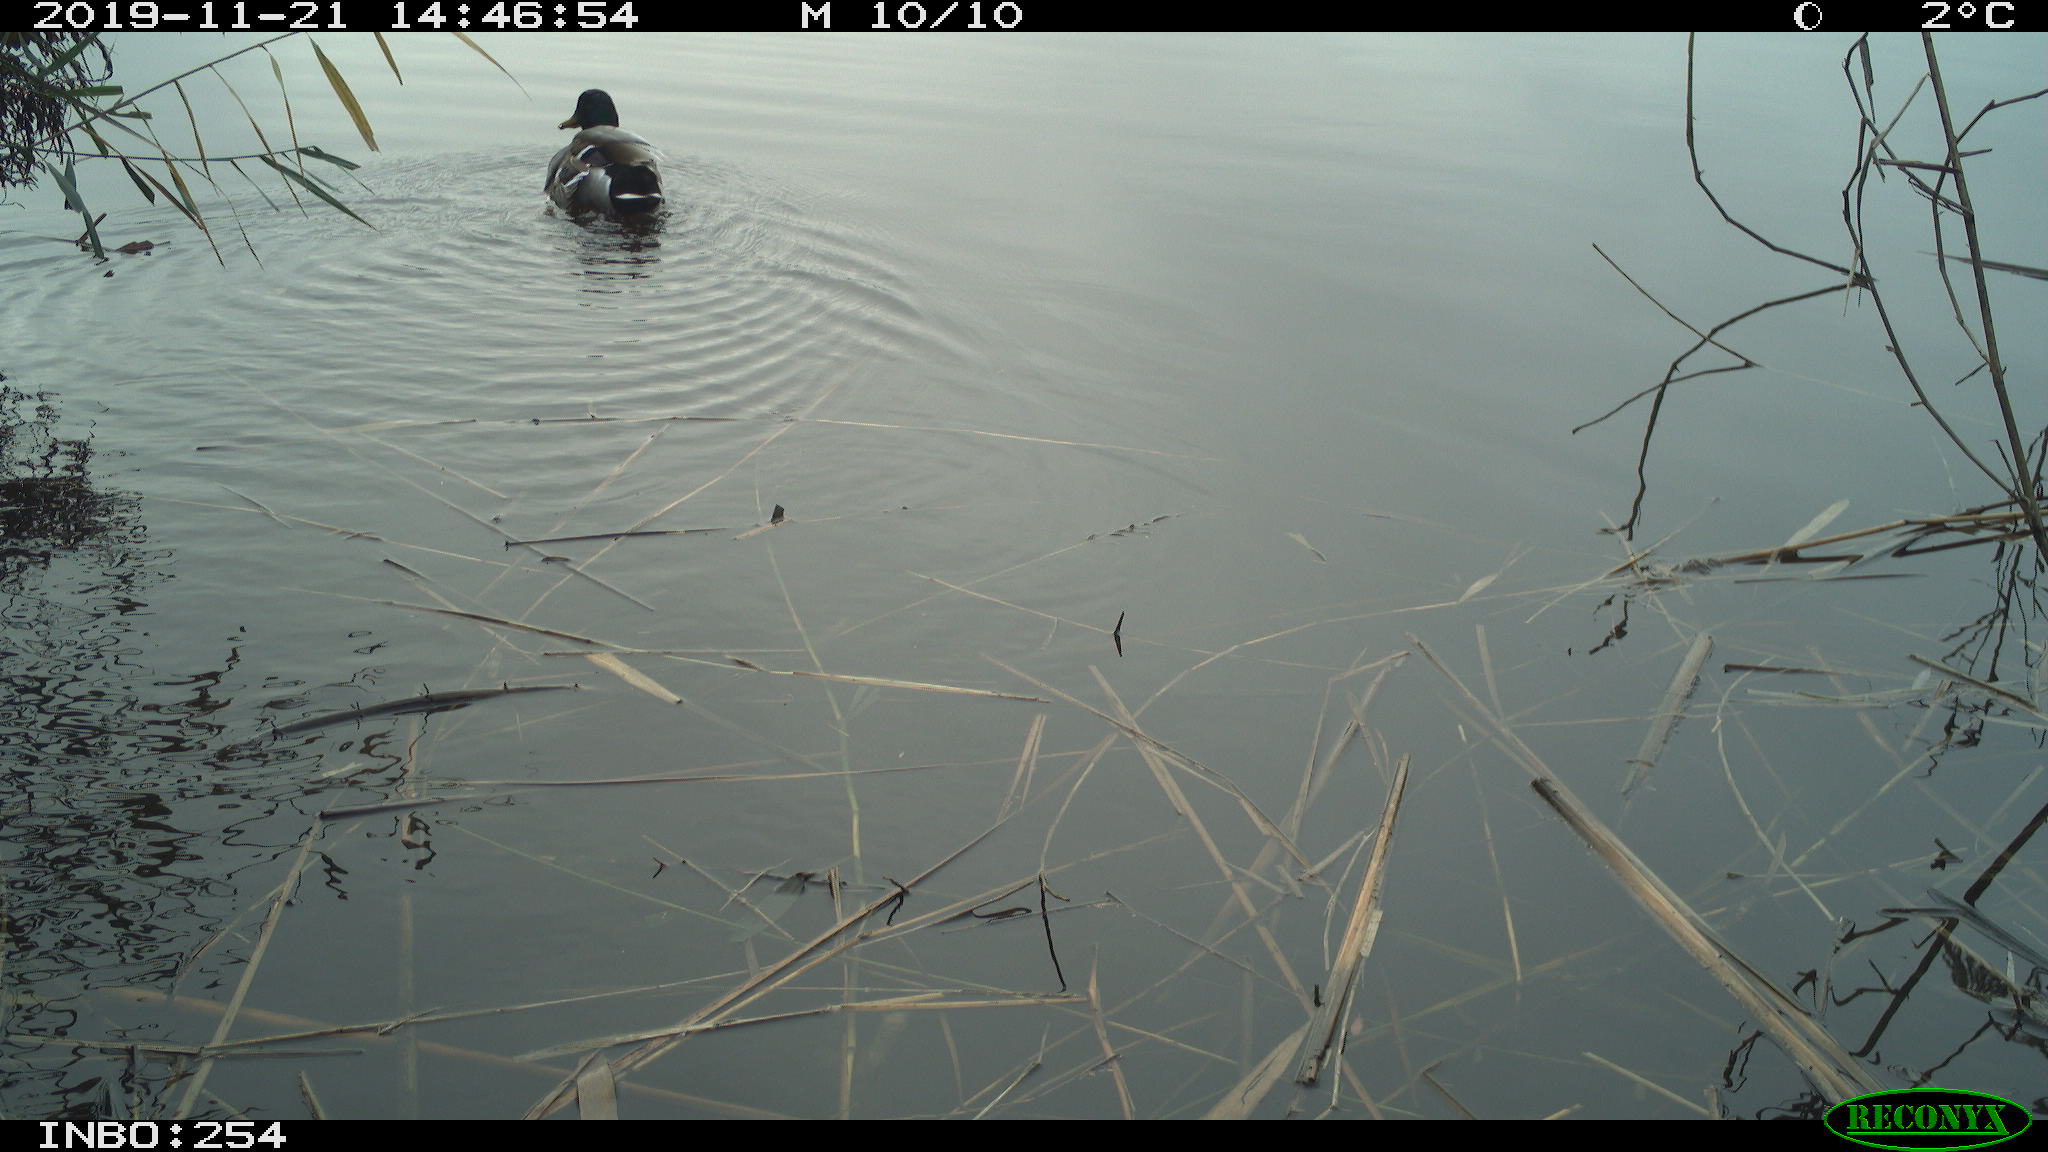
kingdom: Animalia
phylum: Chordata
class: Aves
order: Anseriformes
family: Anatidae
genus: Anas
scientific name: Anas platyrhynchos
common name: Mallard
